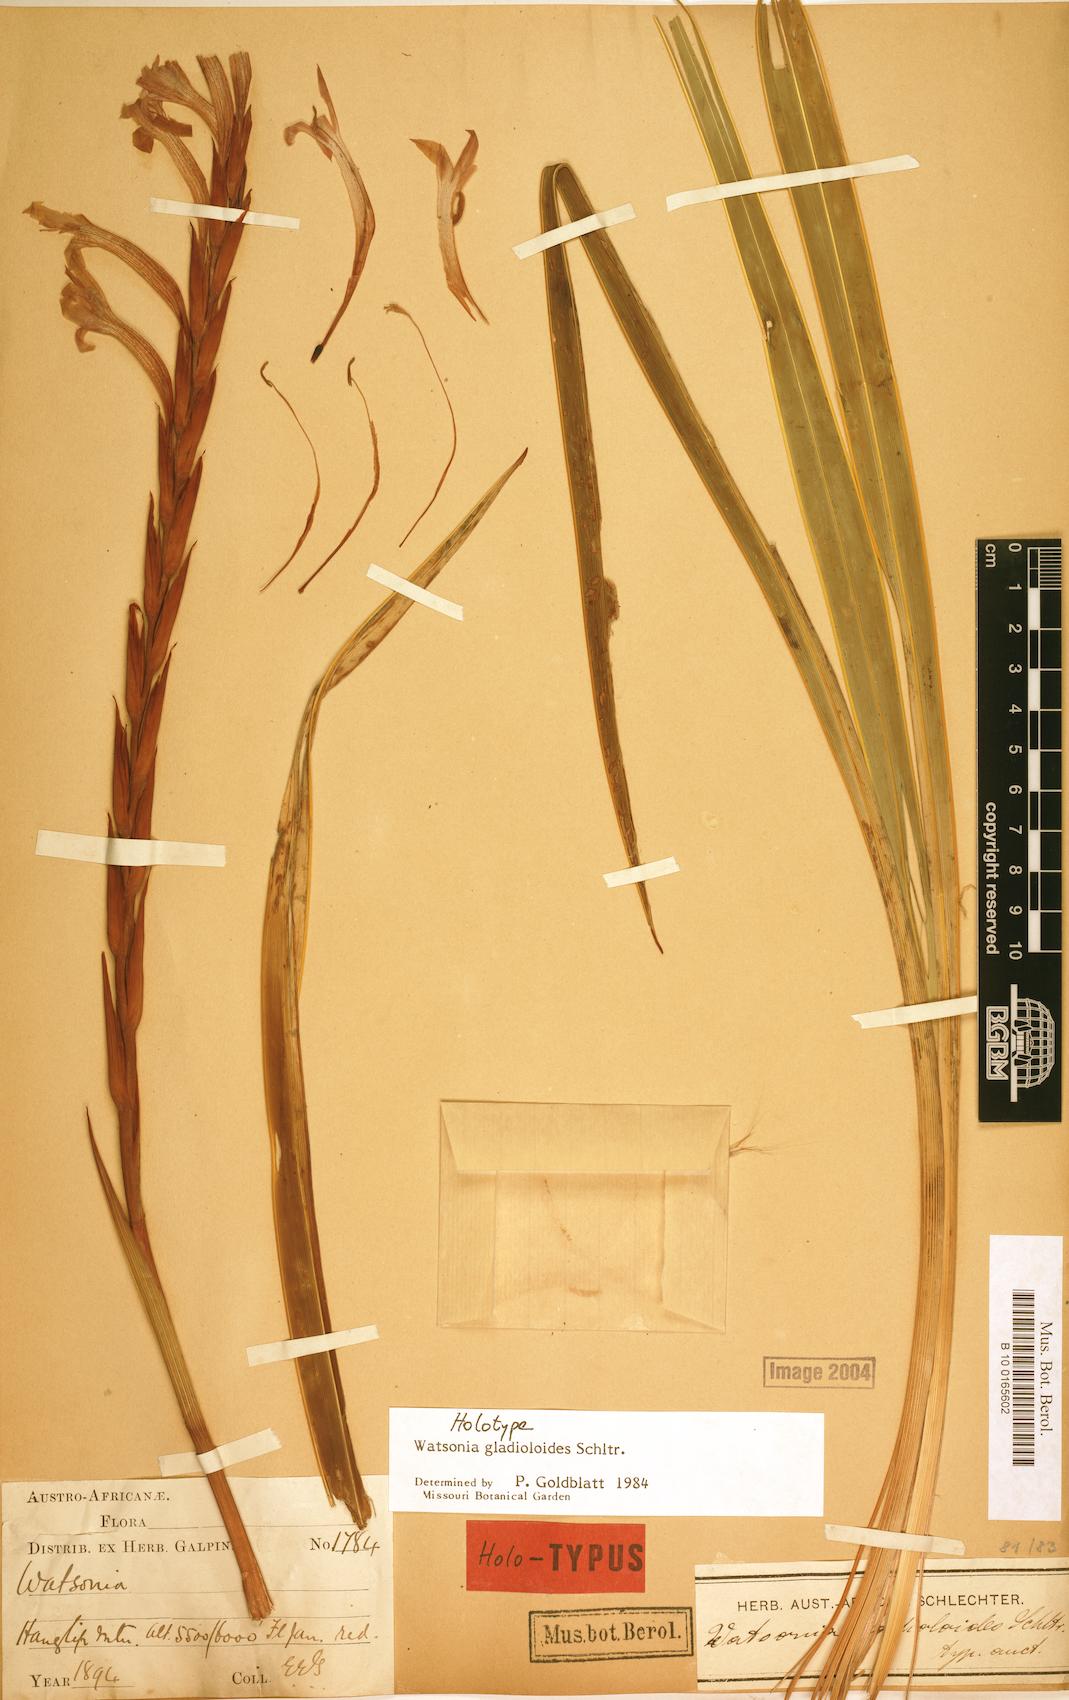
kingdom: Plantae
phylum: Tracheophyta
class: Liliopsida
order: Asparagales
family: Iridaceae
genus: Watsonia
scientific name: Watsonia gladioloides
